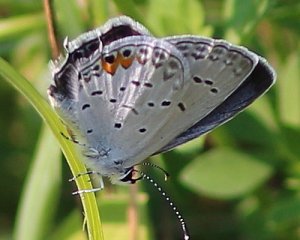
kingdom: Animalia
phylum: Arthropoda
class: Insecta
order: Lepidoptera
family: Lycaenidae
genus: Elkalyce
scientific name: Elkalyce comyntas
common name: Eastern Tailed-Blue
